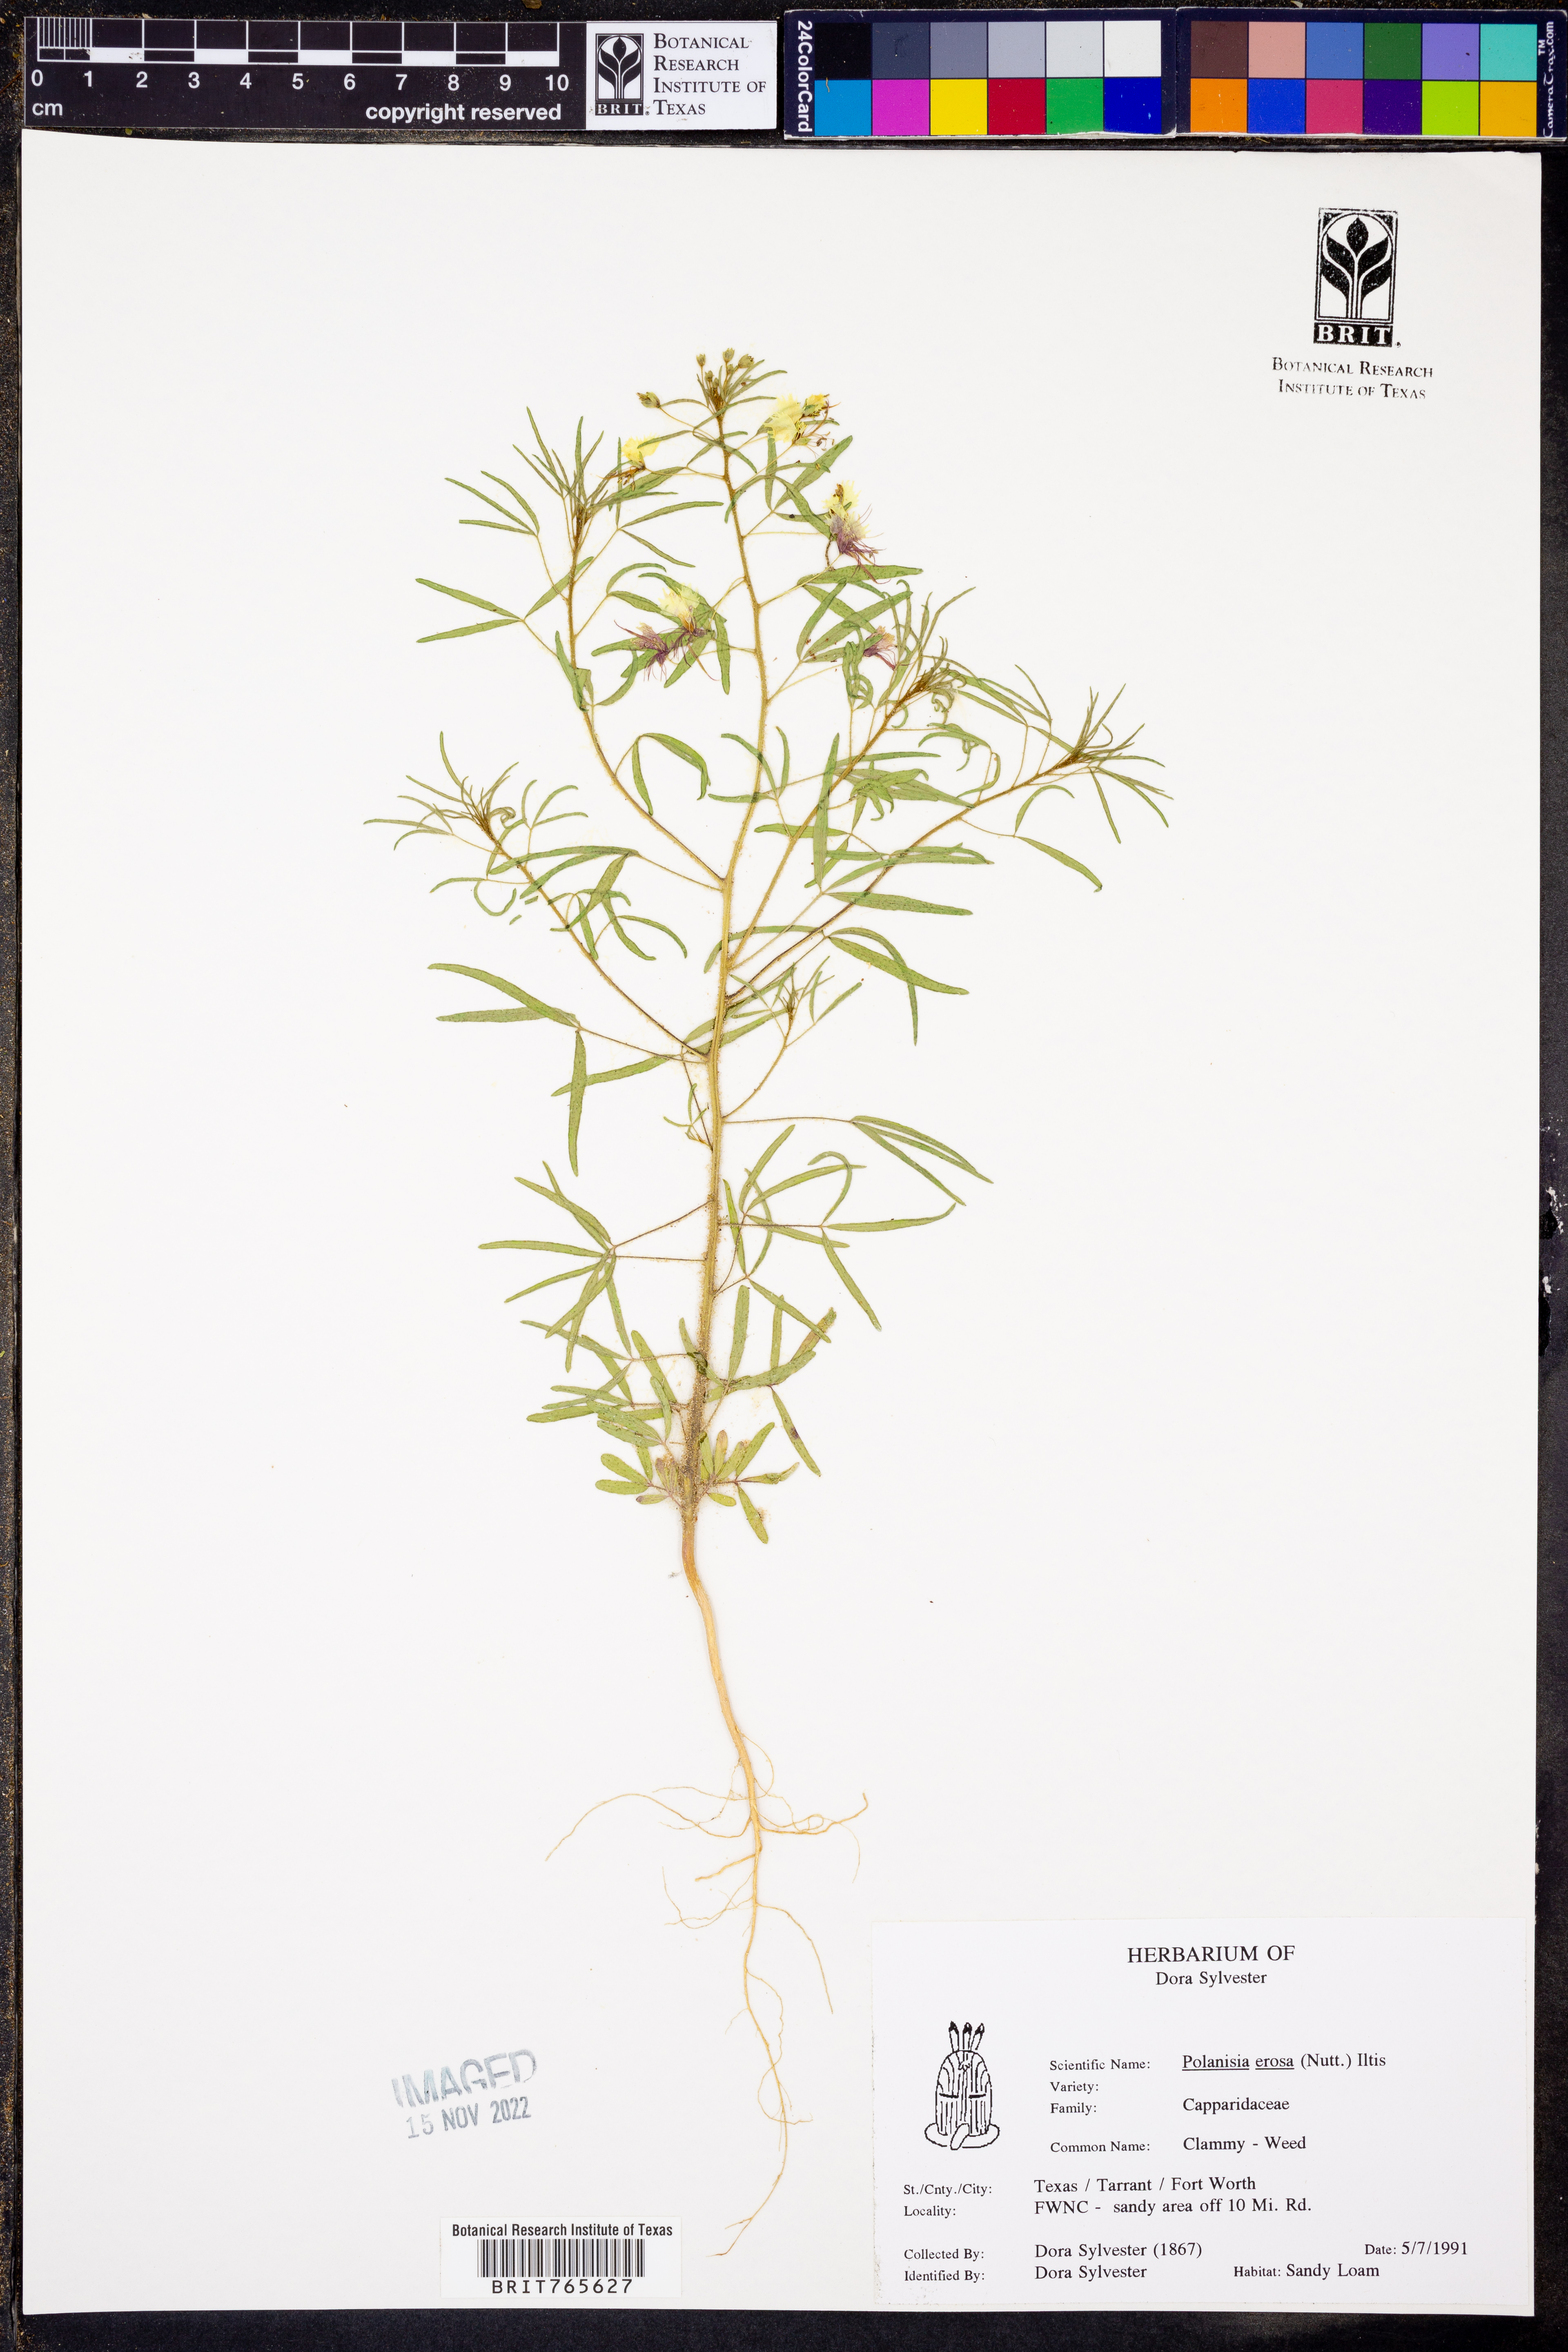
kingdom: Plantae
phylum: Tracheophyta
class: Magnoliopsida
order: Brassicales
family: Cleomaceae
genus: Polanisia
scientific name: Polanisia erosa
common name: Large clammyweed
